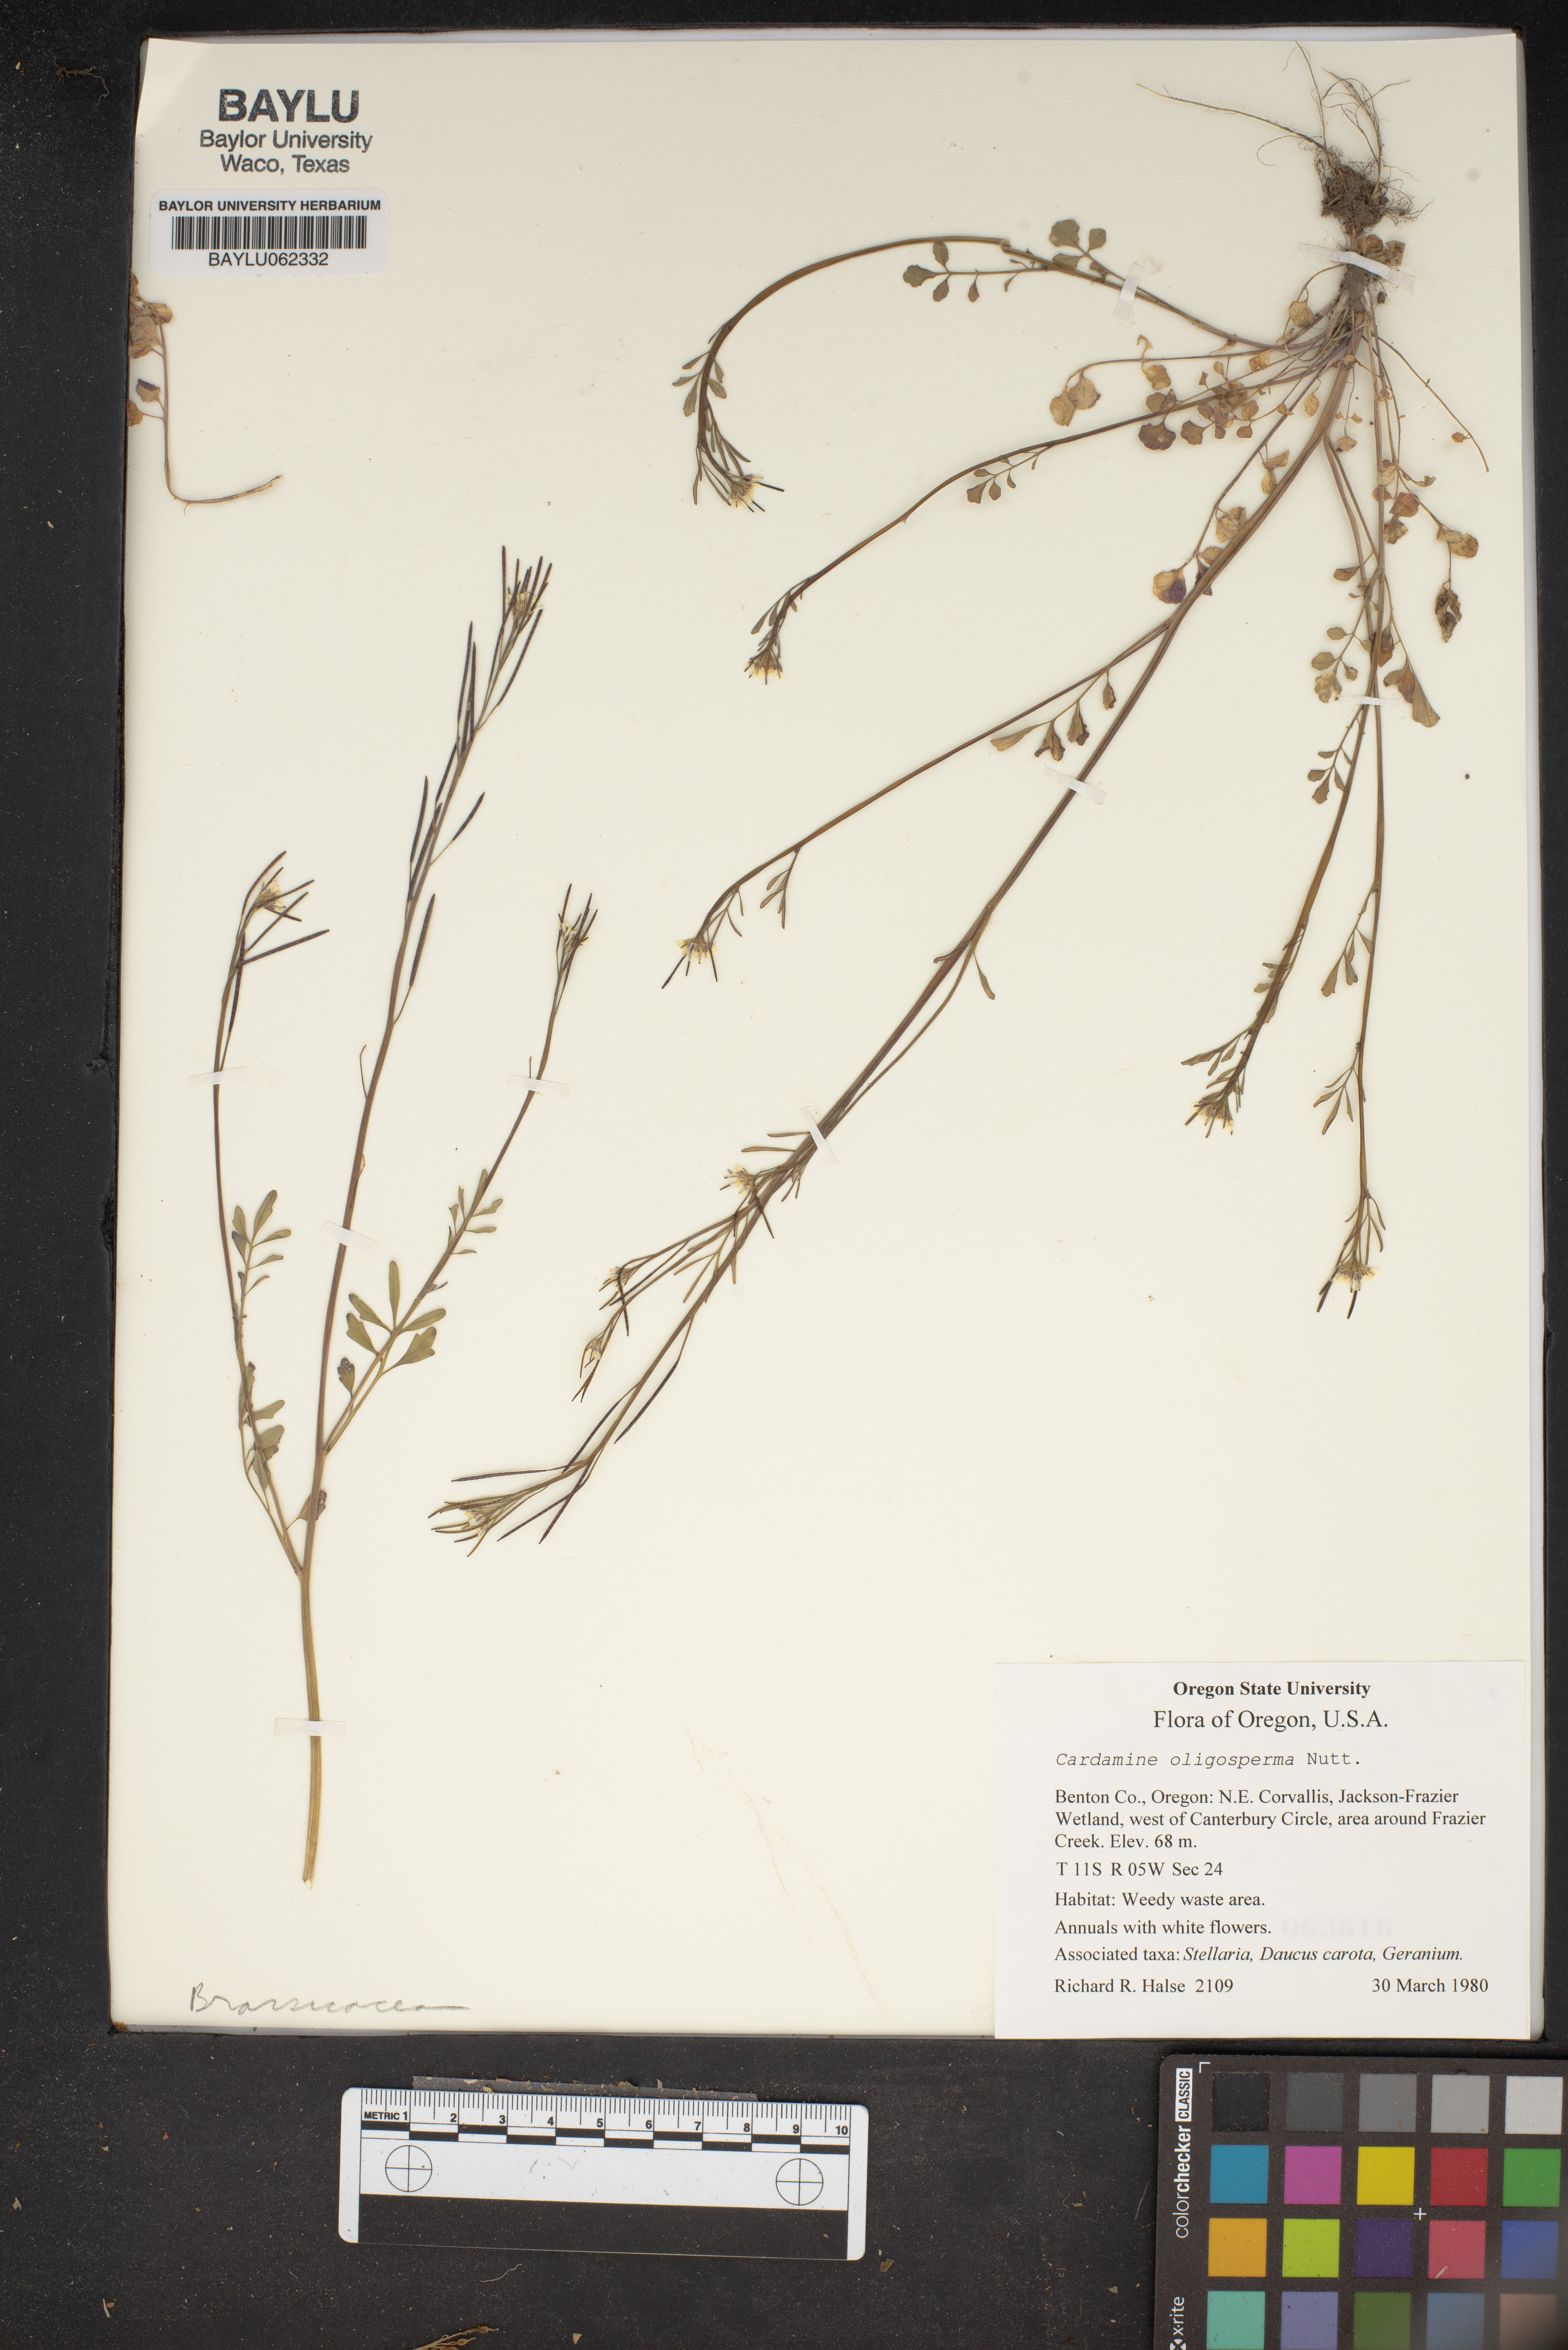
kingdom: Plantae
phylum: Tracheophyta
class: Magnoliopsida
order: Brassicales
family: Brassicaceae
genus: Cardamine
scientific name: Cardamine oligosperma
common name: Idaho bittercress
